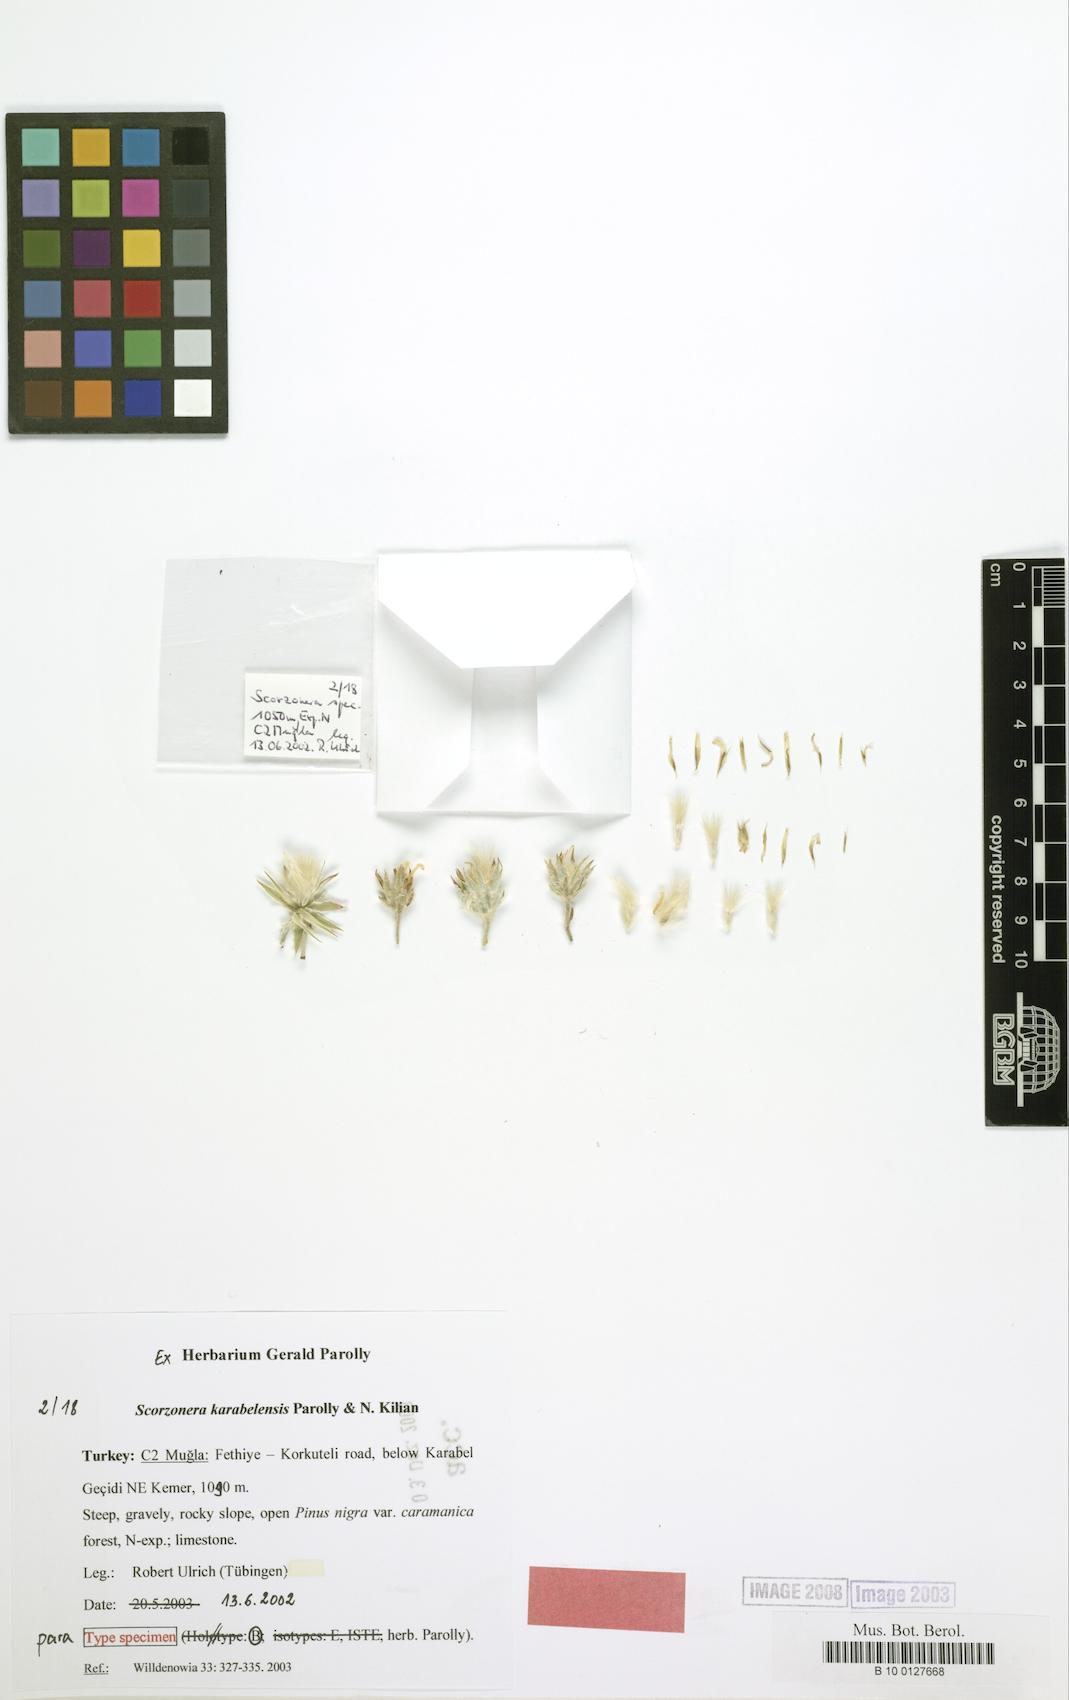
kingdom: Plantae
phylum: Tracheophyta
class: Magnoliopsida
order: Asterales
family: Asteraceae
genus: Bilgea
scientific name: Bilgea karabelensis
